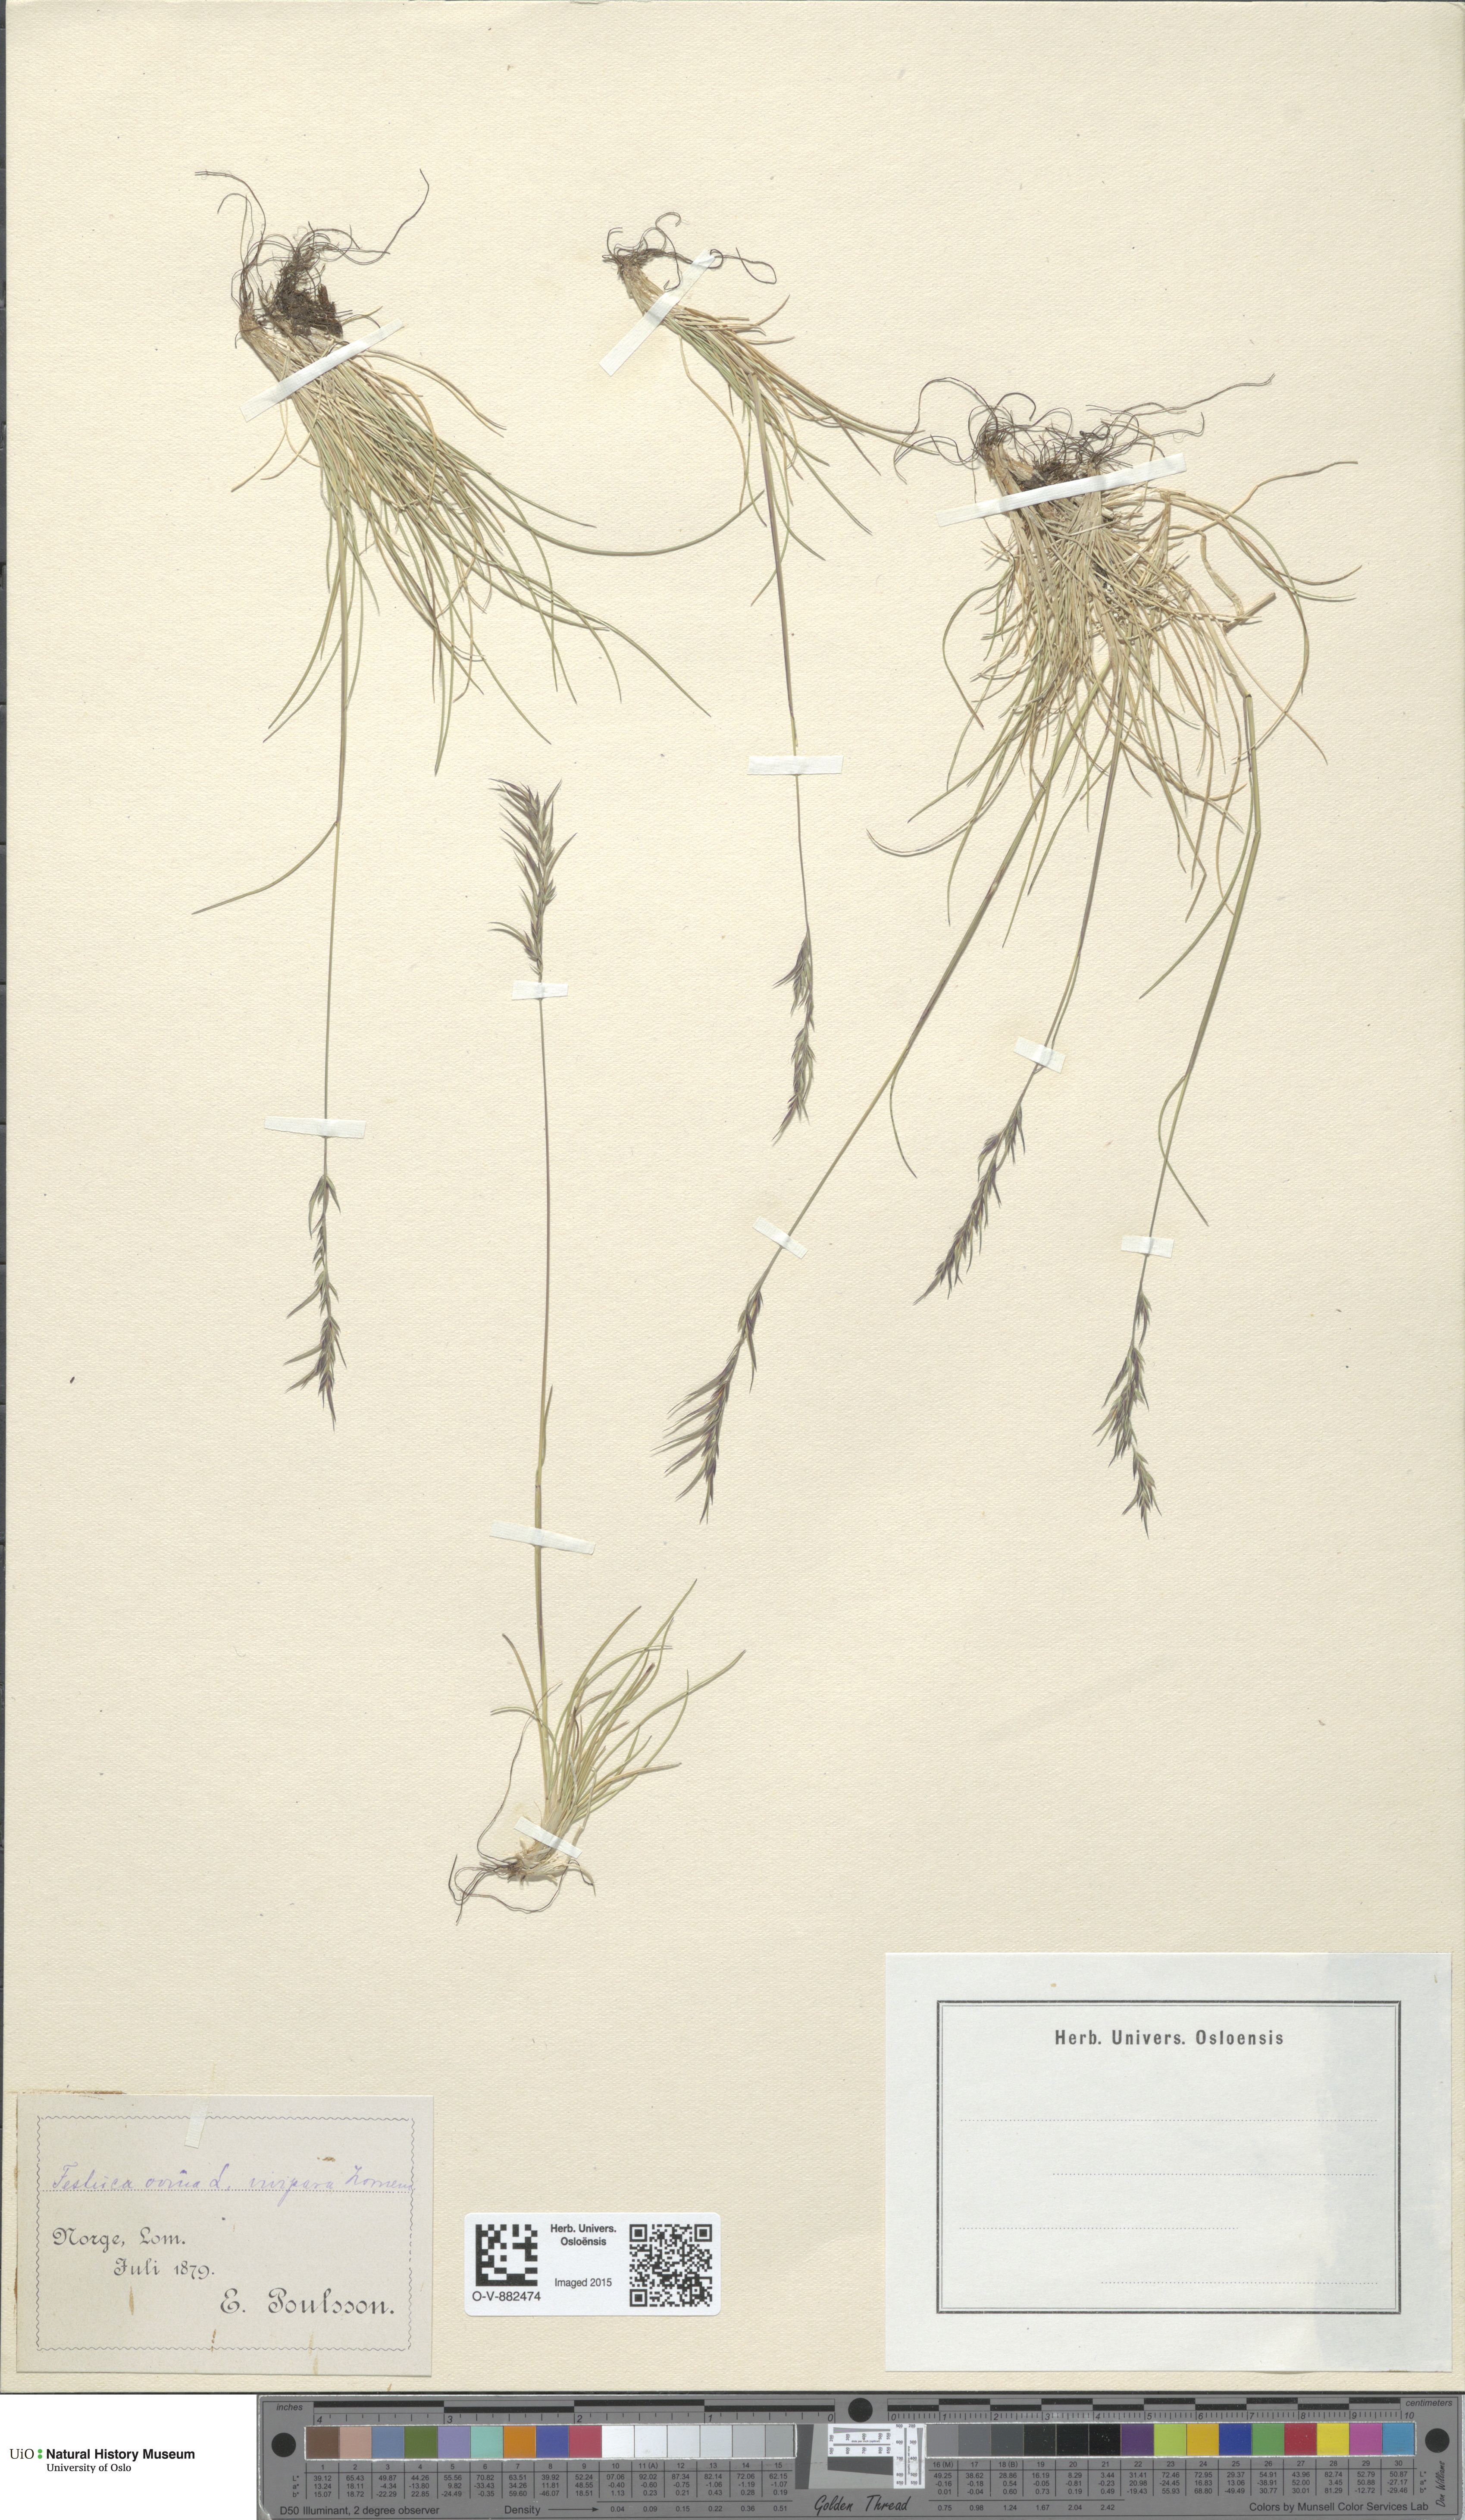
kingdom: Plantae
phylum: Tracheophyta
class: Liliopsida
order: Poales
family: Poaceae
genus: Festuca
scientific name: Festuca vivipara
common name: Viviparous sheep's-fescue
